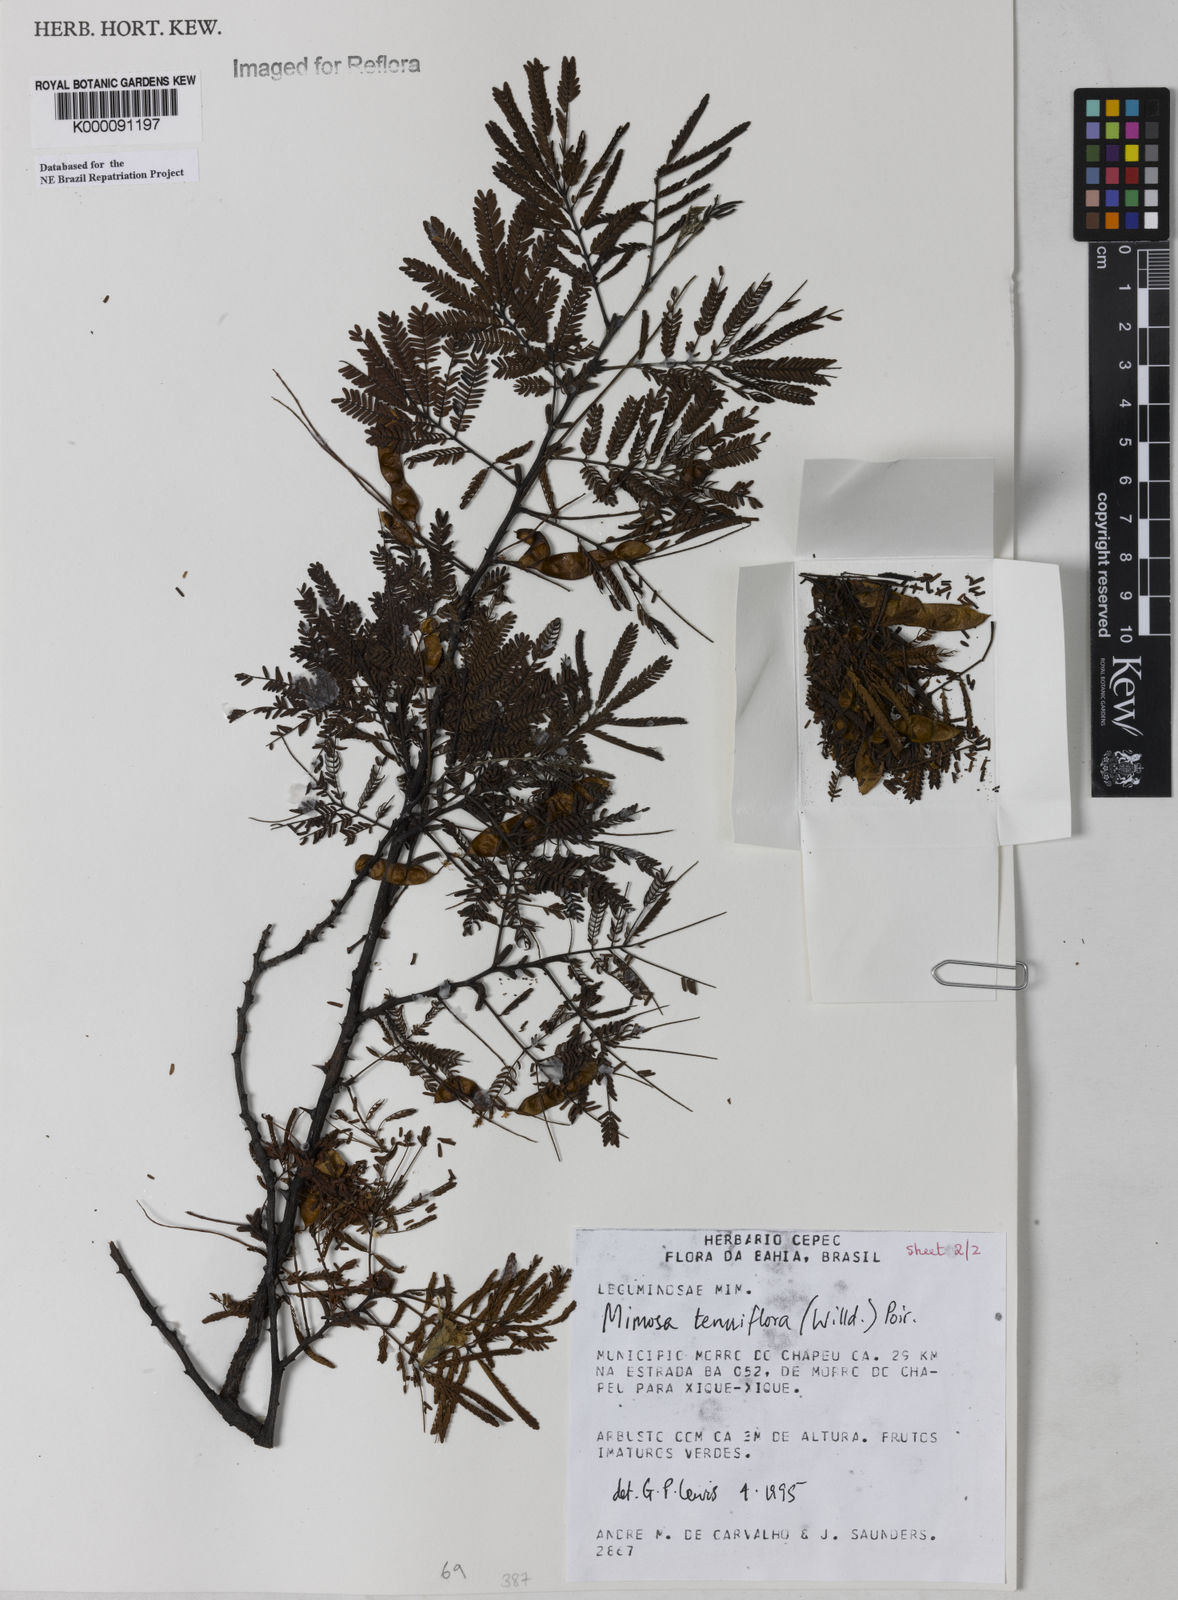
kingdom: Plantae
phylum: Tracheophyta
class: Magnoliopsida
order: Fabales
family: Fabaceae
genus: Mimosa
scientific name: Mimosa tenuiflora
